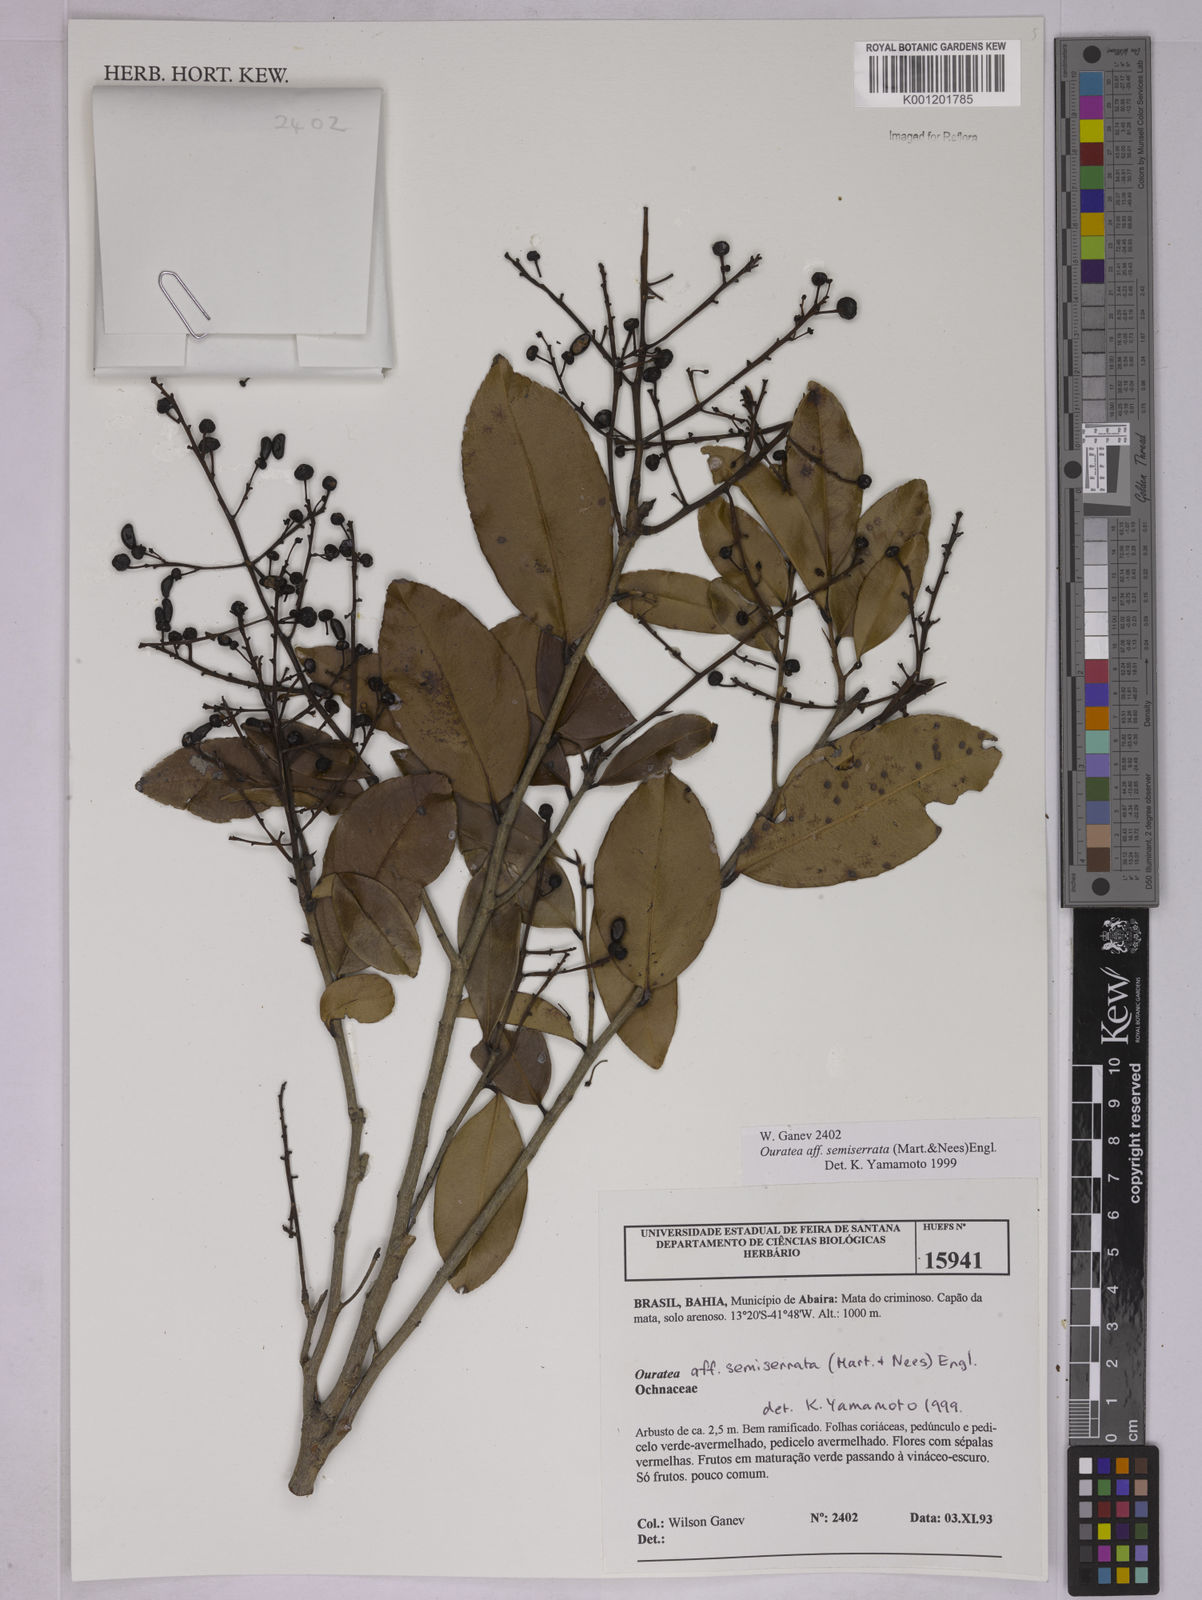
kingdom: Plantae
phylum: Tracheophyta
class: Magnoliopsida
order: Malpighiales
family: Ochnaceae
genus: Ouratea
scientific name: Ouratea semiserrata
